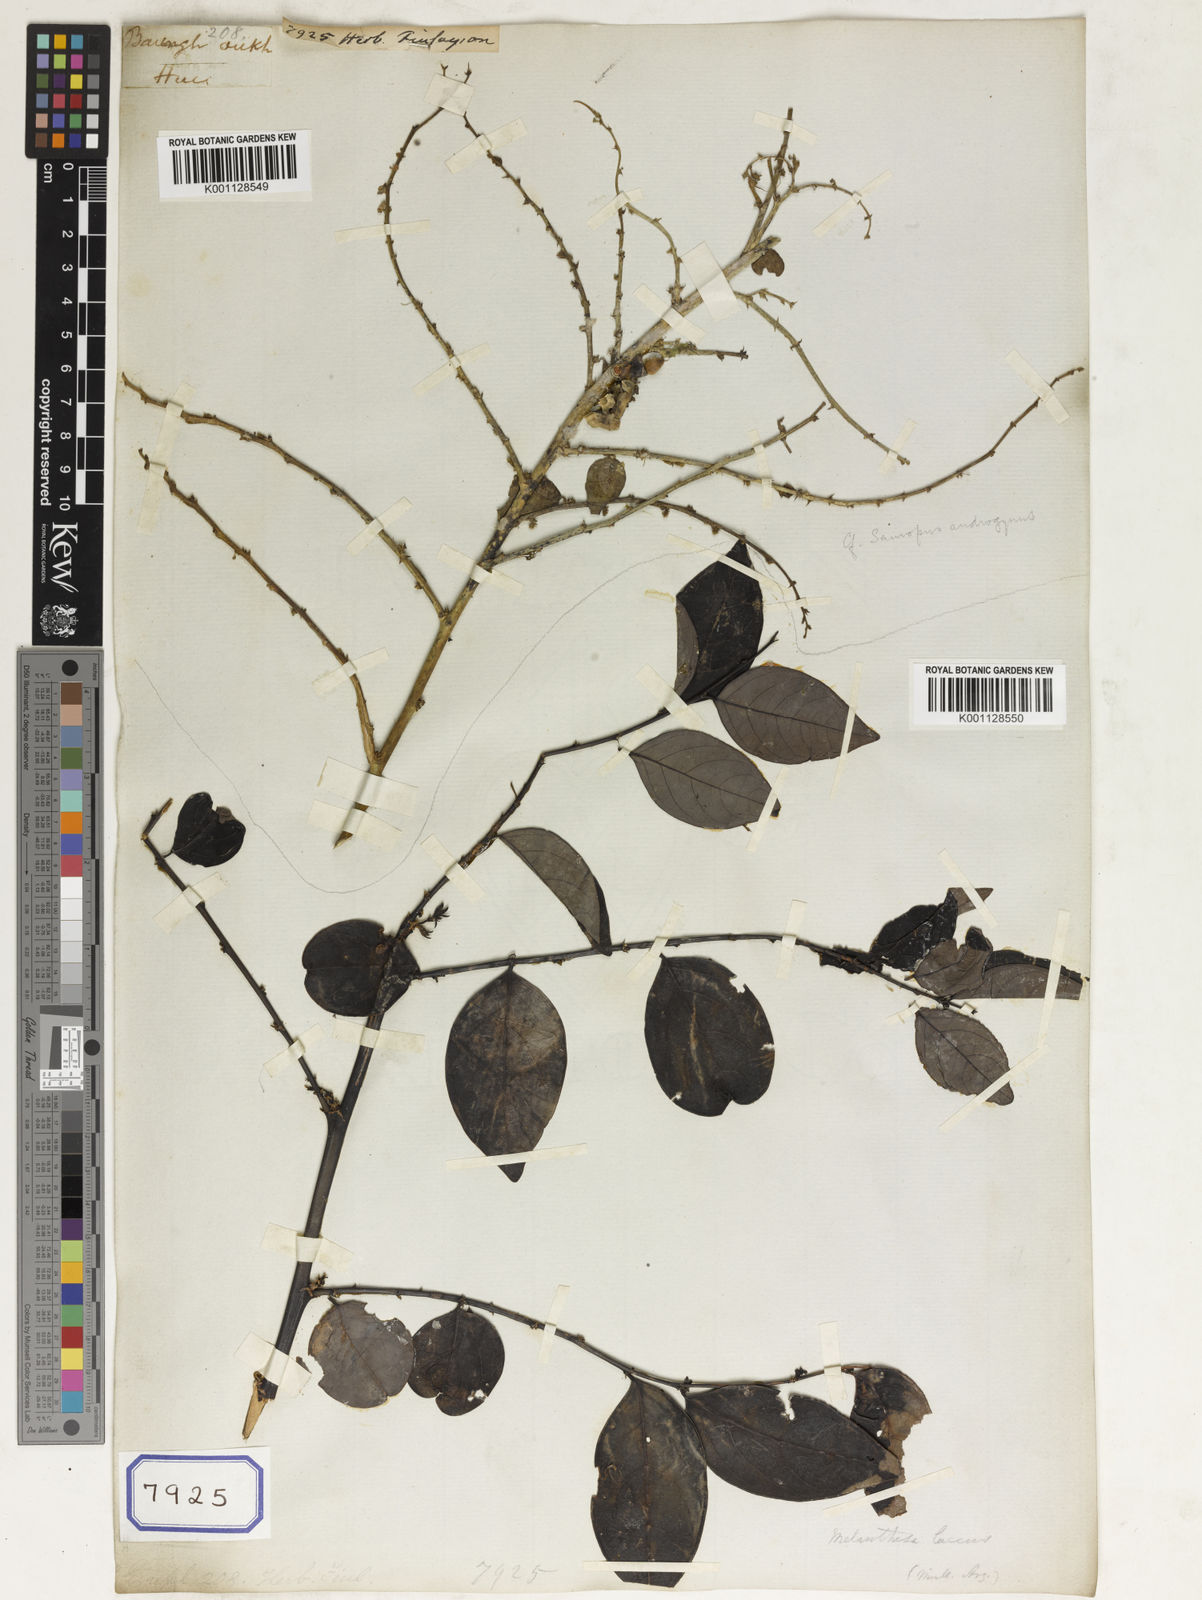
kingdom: Plantae
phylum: Tracheophyta
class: Magnoliopsida
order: Malpighiales
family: Euphorbiaceae
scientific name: Euphorbiaceae
